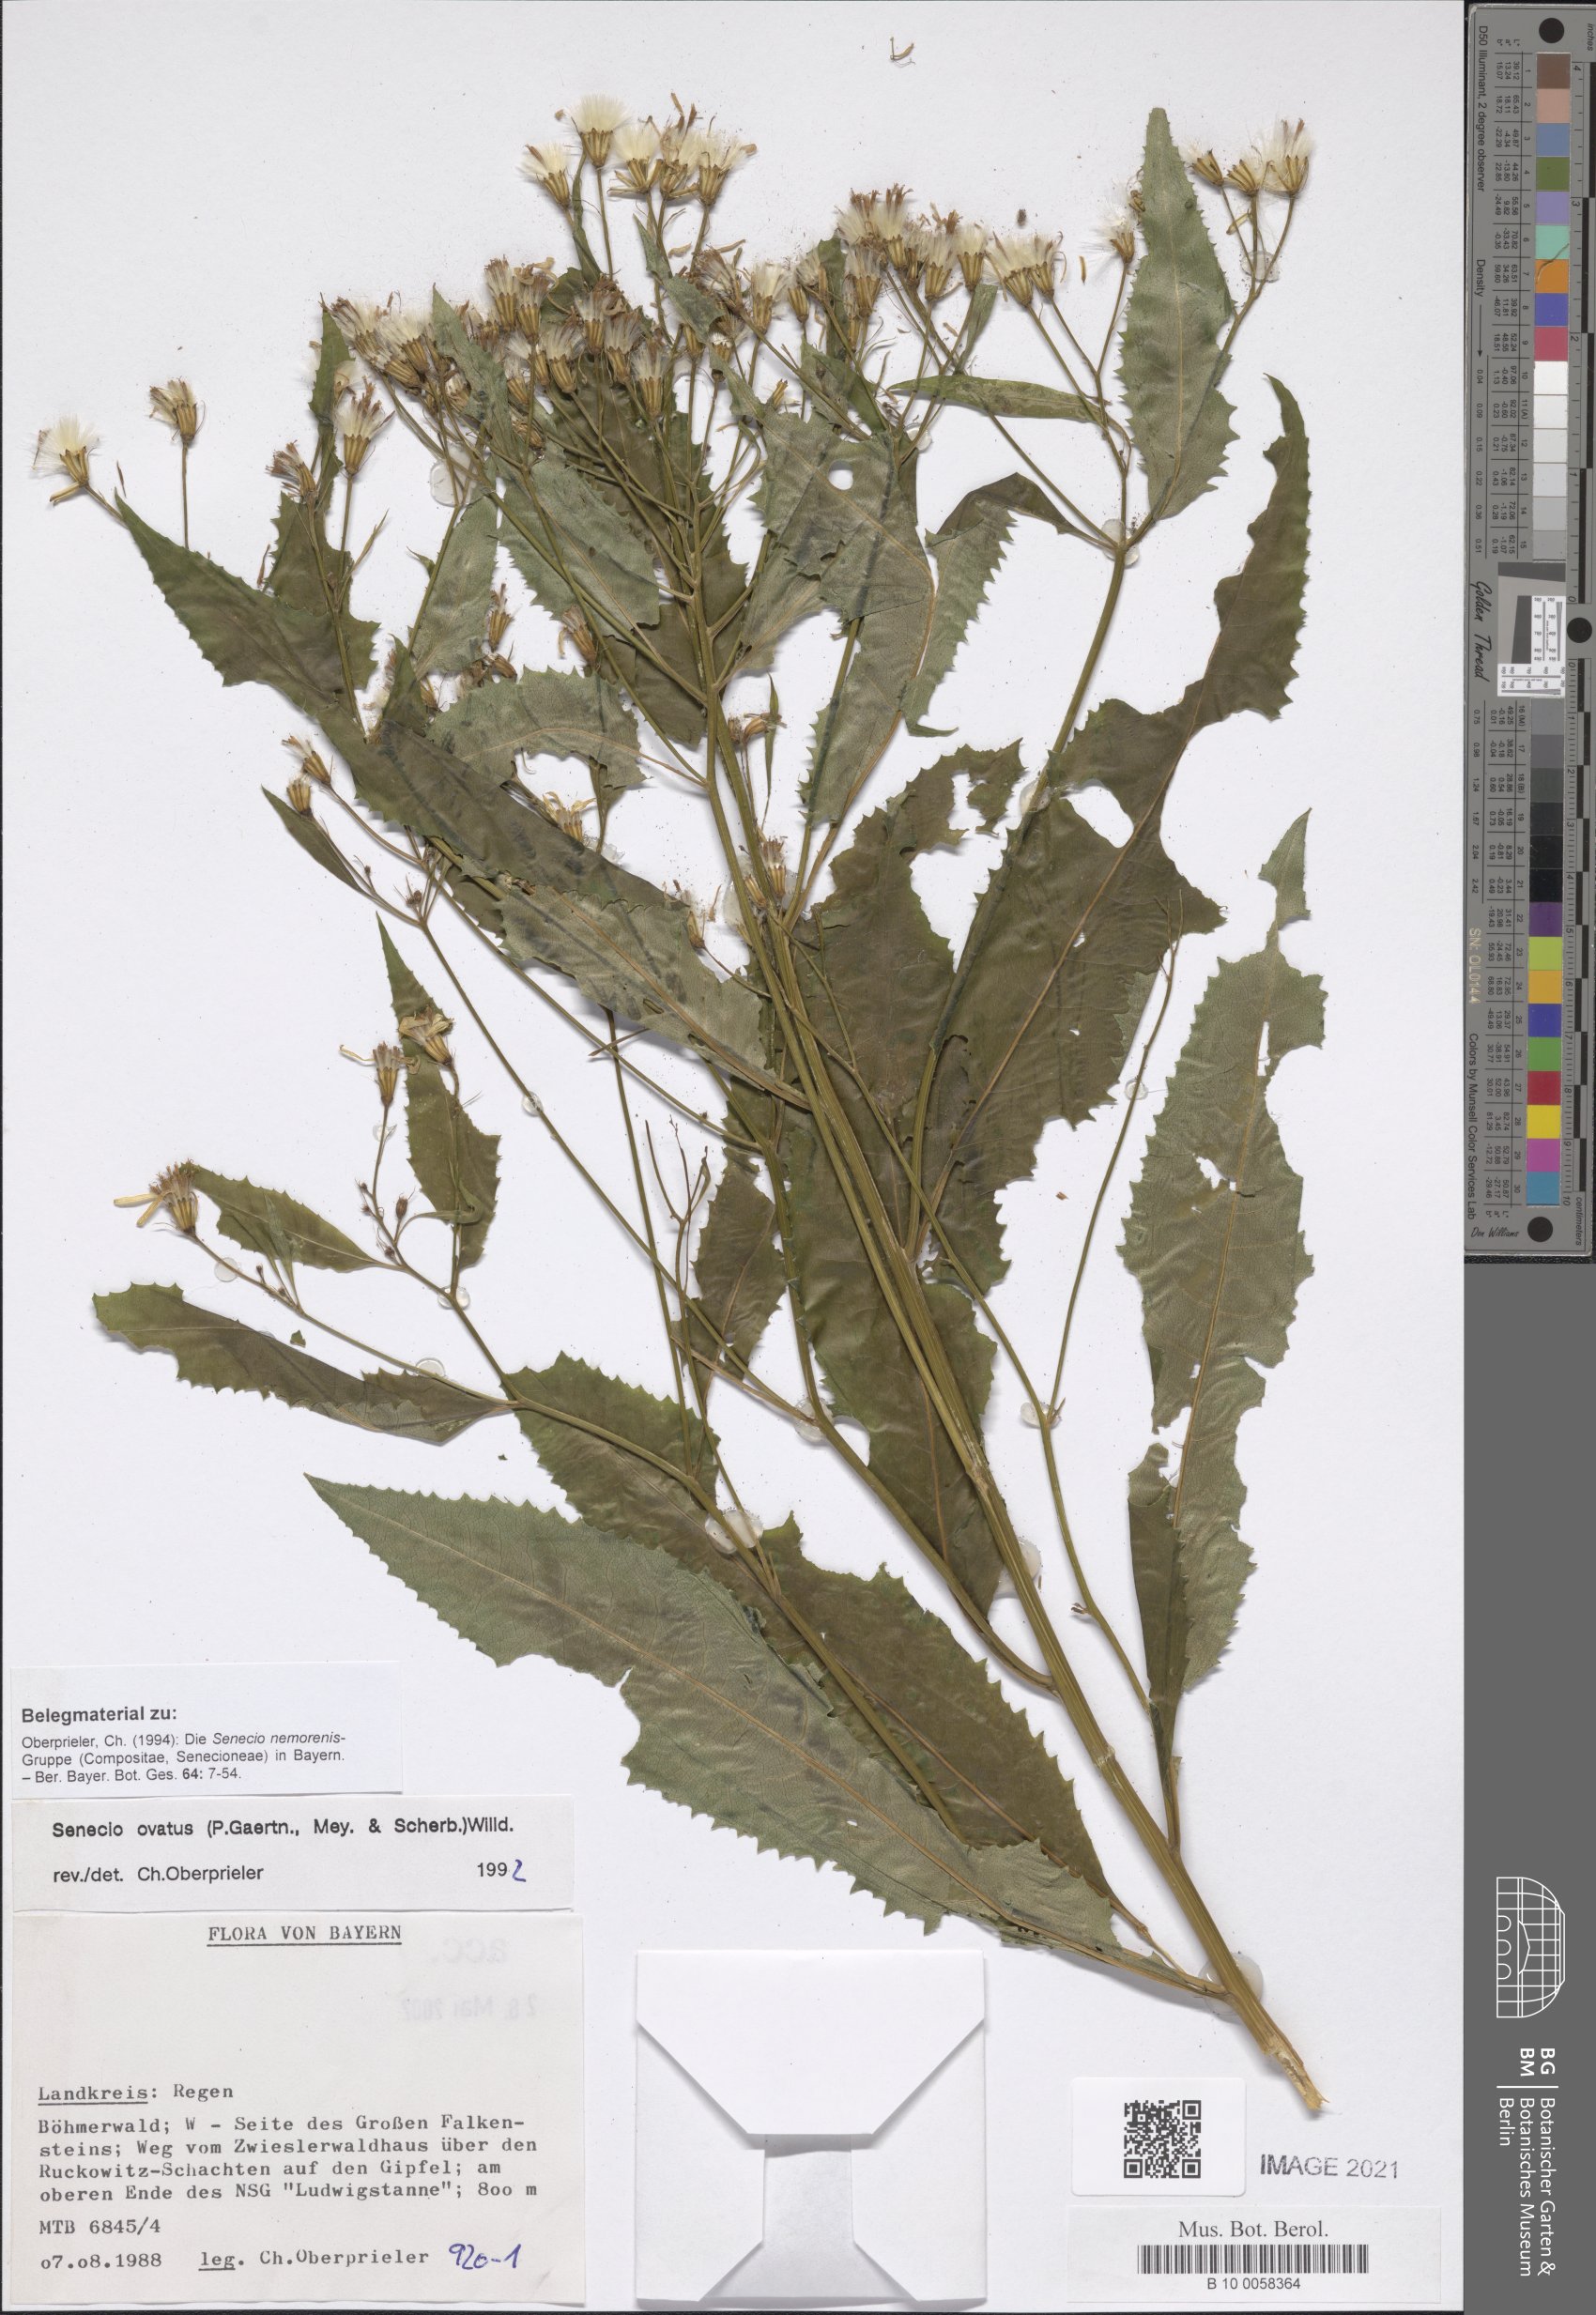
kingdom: Plantae
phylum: Tracheophyta
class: Magnoliopsida
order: Asterales
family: Asteraceae
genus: Senecio
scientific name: Senecio ovatus
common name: Wood ragwort
